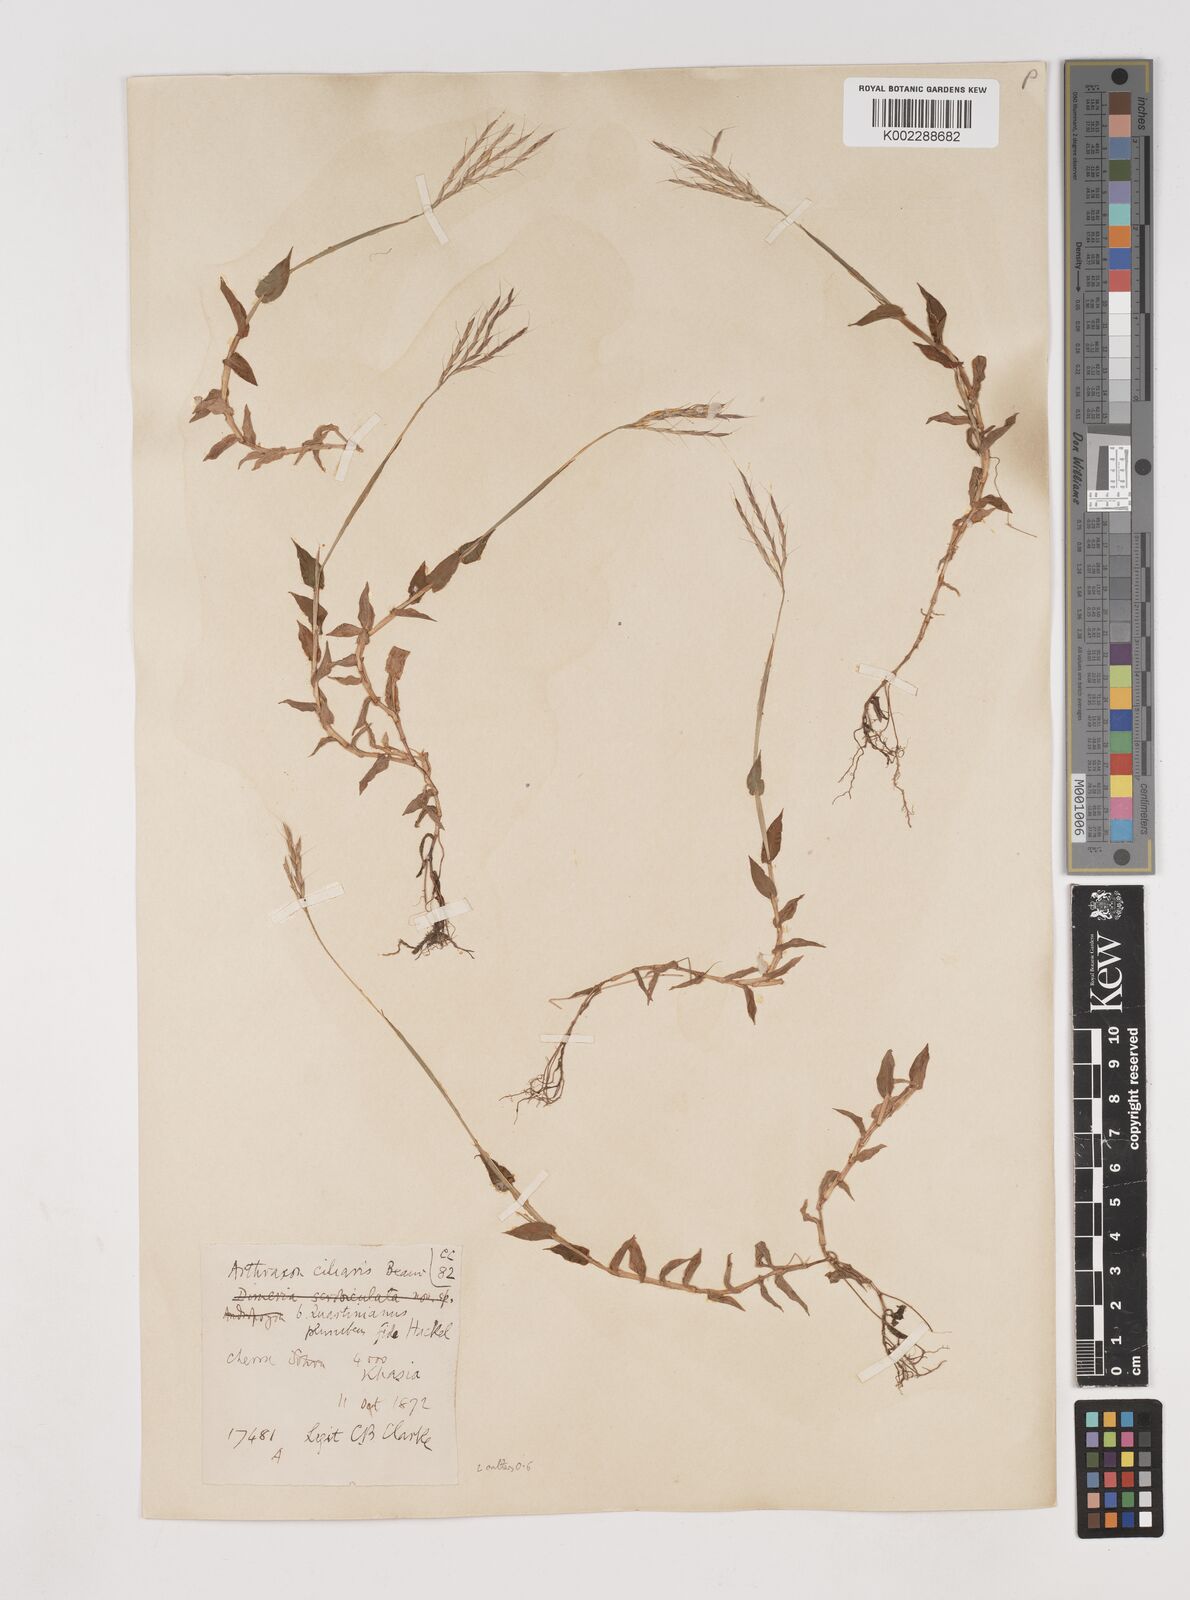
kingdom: Plantae
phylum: Tracheophyta
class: Liliopsida
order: Poales
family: Poaceae
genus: Arthraxon
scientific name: Arthraxon hispidus
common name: Small carpgrass
